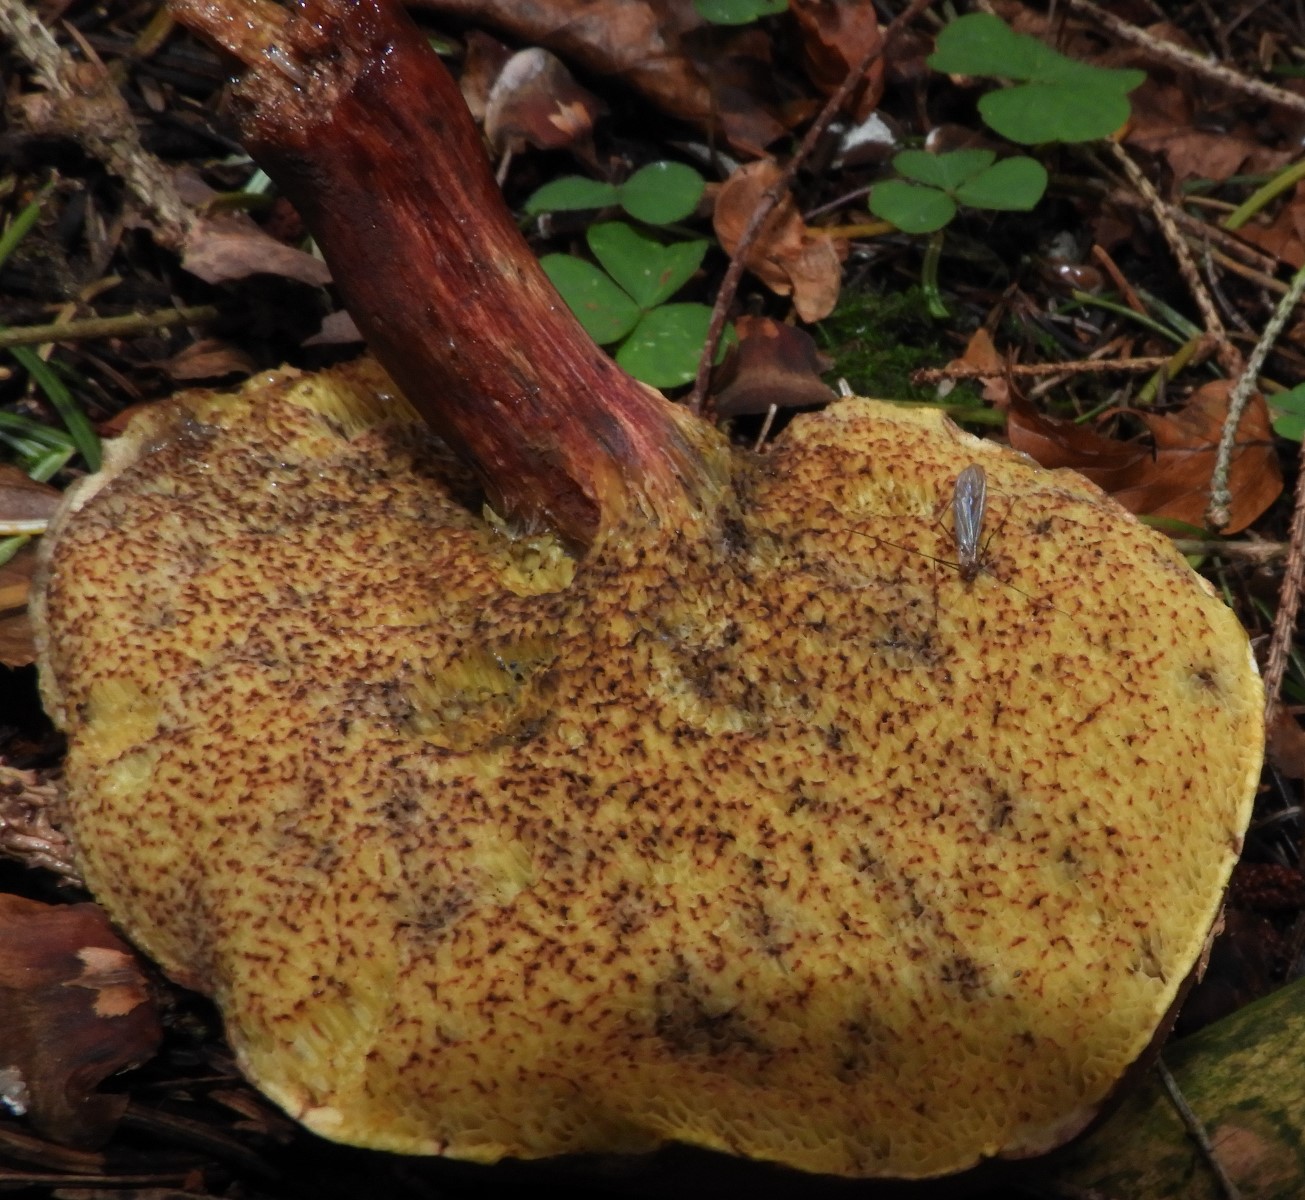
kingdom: Fungi
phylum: Basidiomycota
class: Agaricomycetes
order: Boletales
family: Boletaceae
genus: Xerocomellus
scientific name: Xerocomellus pruinatus
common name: dugget rørhat
